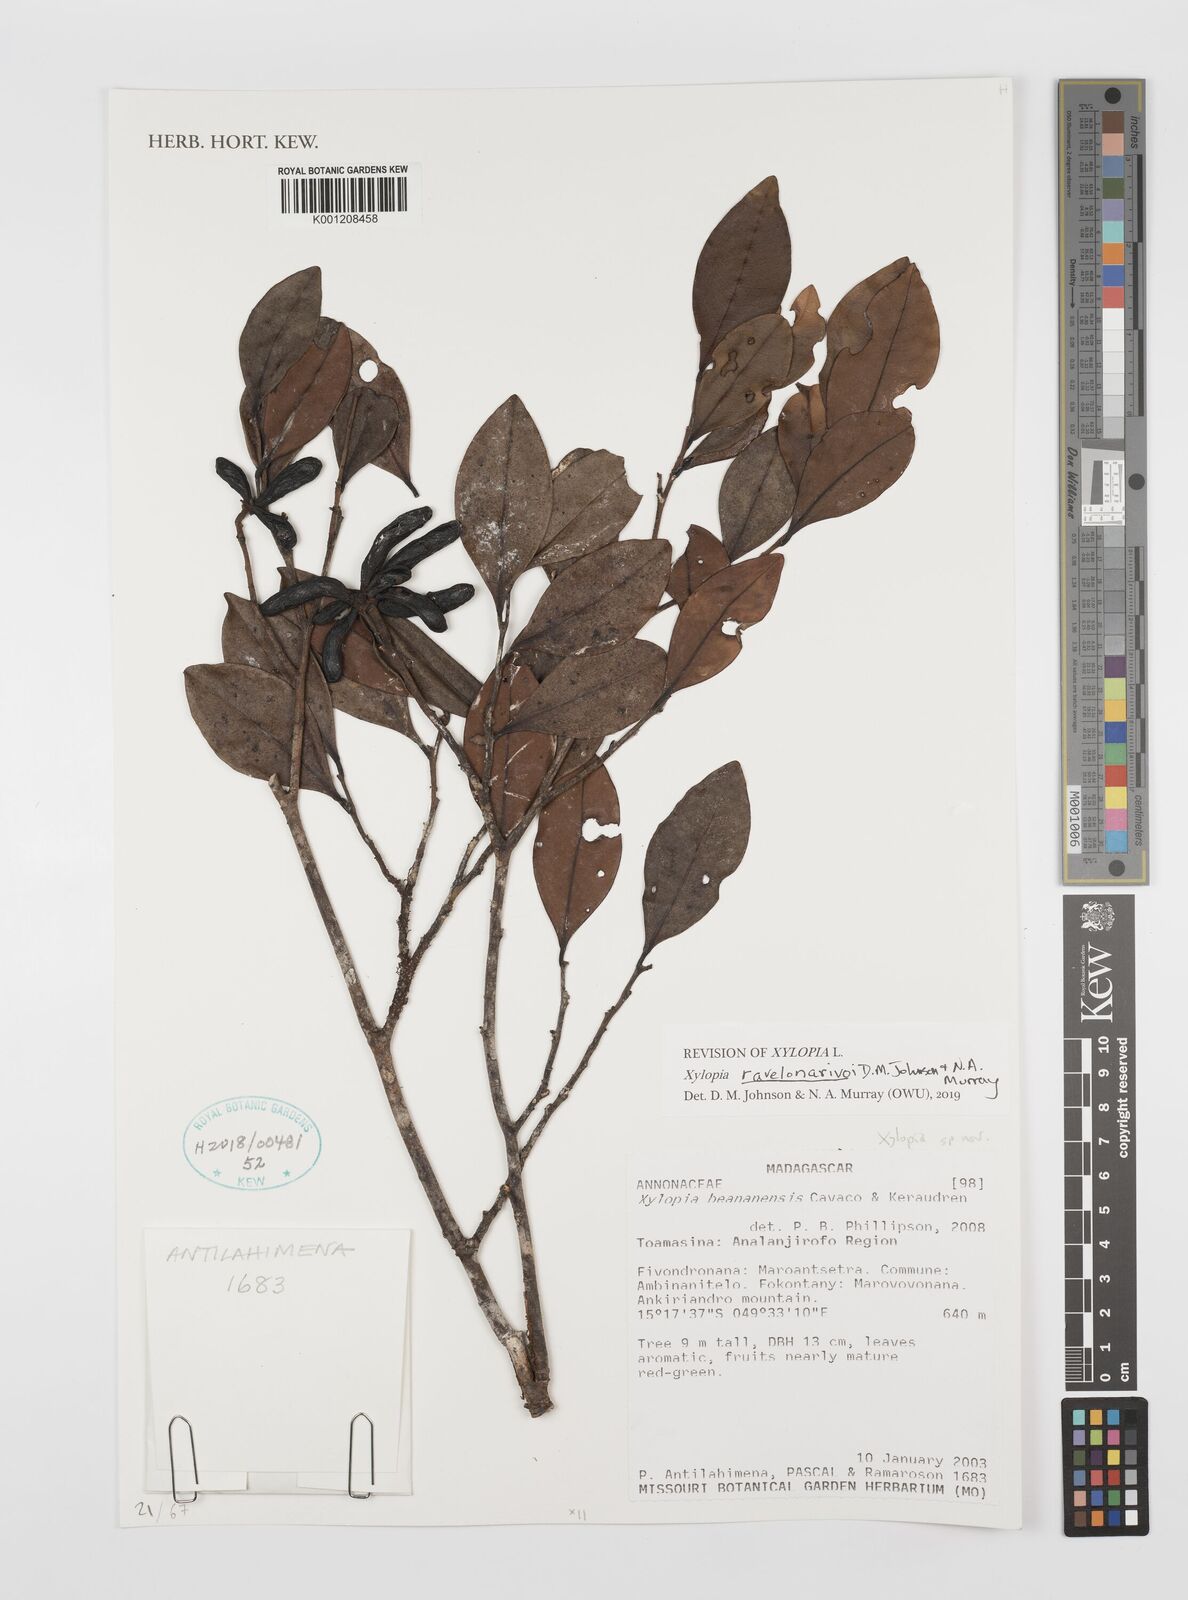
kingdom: Plantae
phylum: Tracheophyta
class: Magnoliopsida
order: Magnoliales
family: Annonaceae
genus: Xylopia
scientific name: Xylopia beananensis
